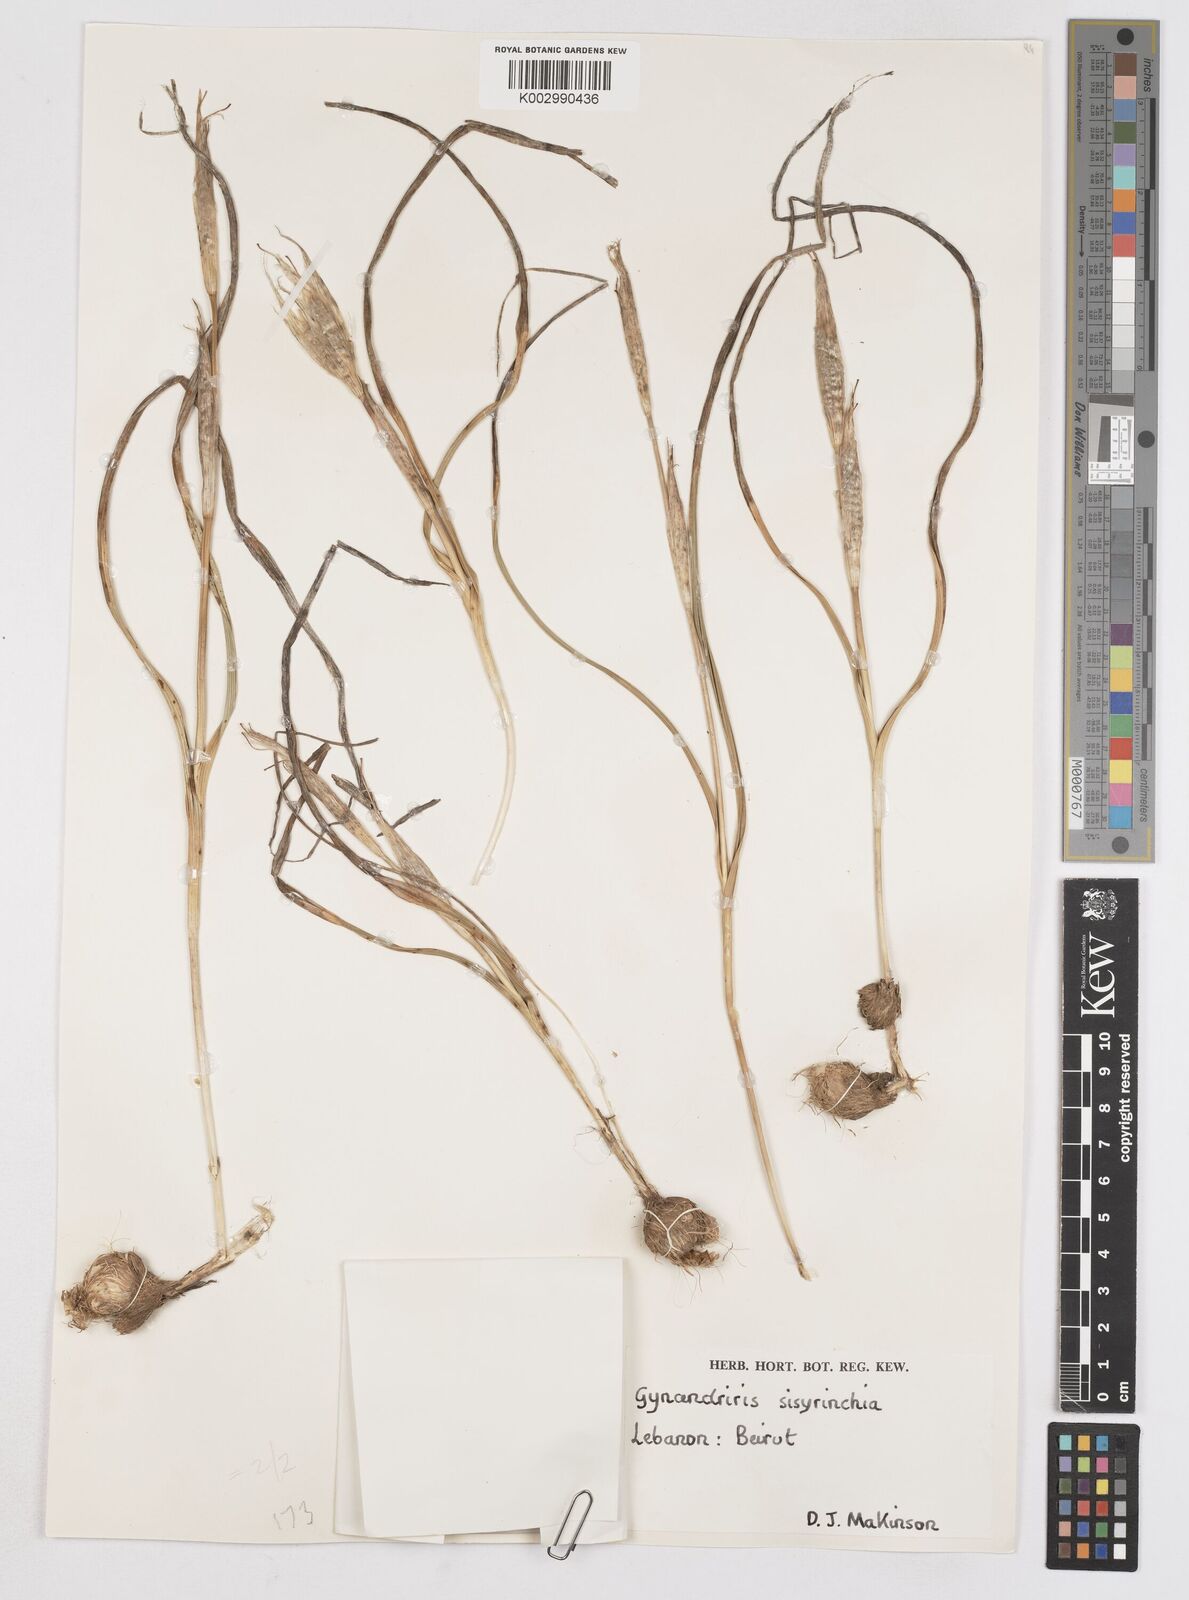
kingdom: Plantae
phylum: Tracheophyta
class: Liliopsida
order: Asparagales
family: Iridaceae
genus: Moraea
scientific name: Moraea sisyrinchium
